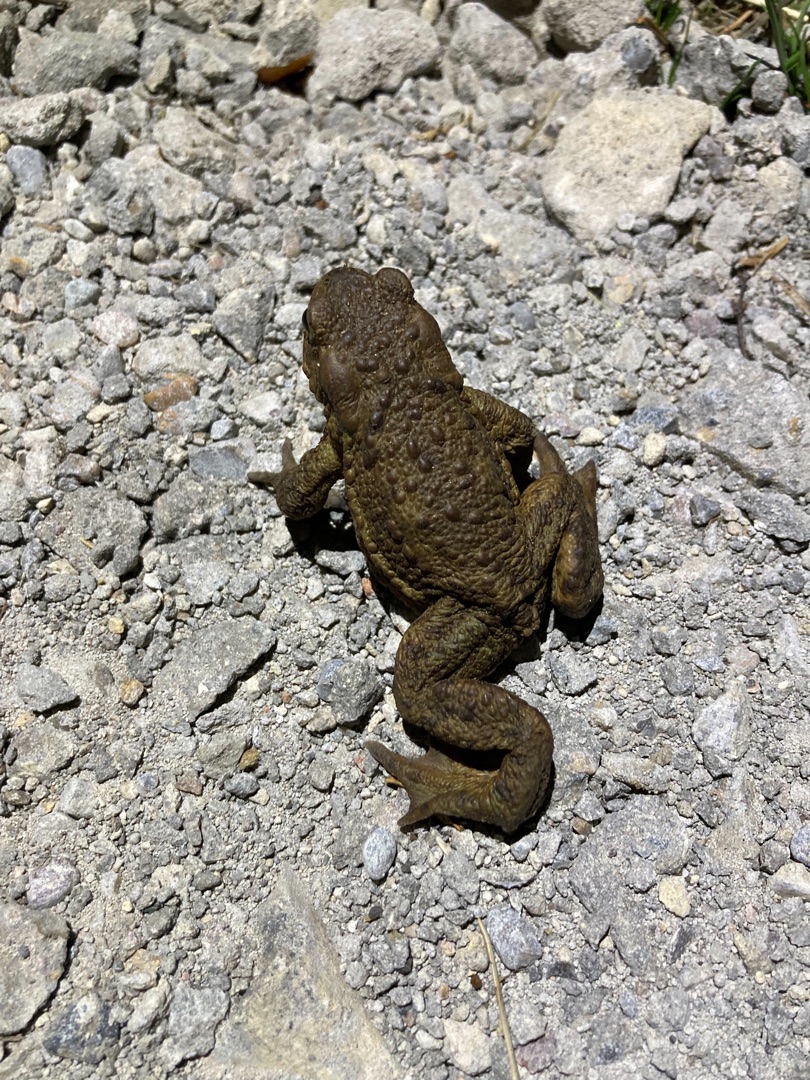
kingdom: Animalia
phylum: Chordata
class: Amphibia
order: Anura
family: Bufonidae
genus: Bufo
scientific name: Bufo bufo
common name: Skrubtudse
